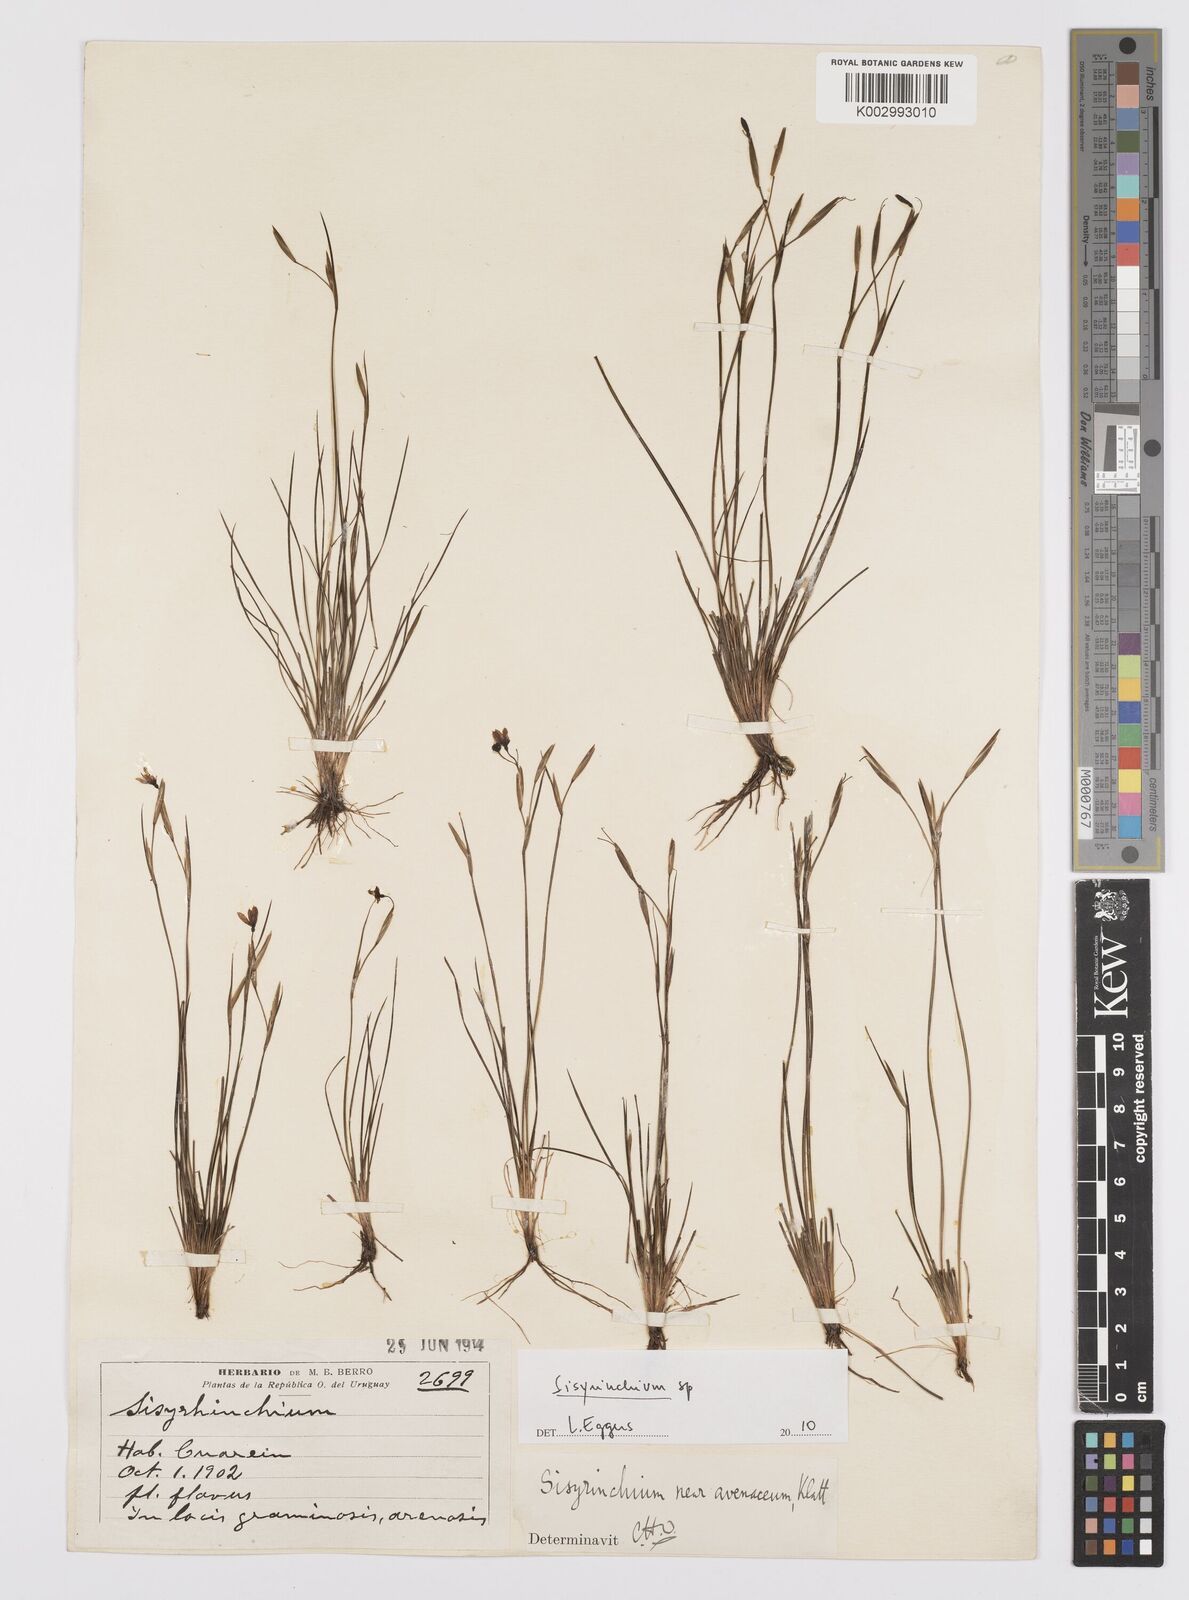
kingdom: Plantae
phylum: Tracheophyta
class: Liliopsida
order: Asparagales
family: Iridaceae
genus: Sisyrinchium
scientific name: Sisyrinchium
